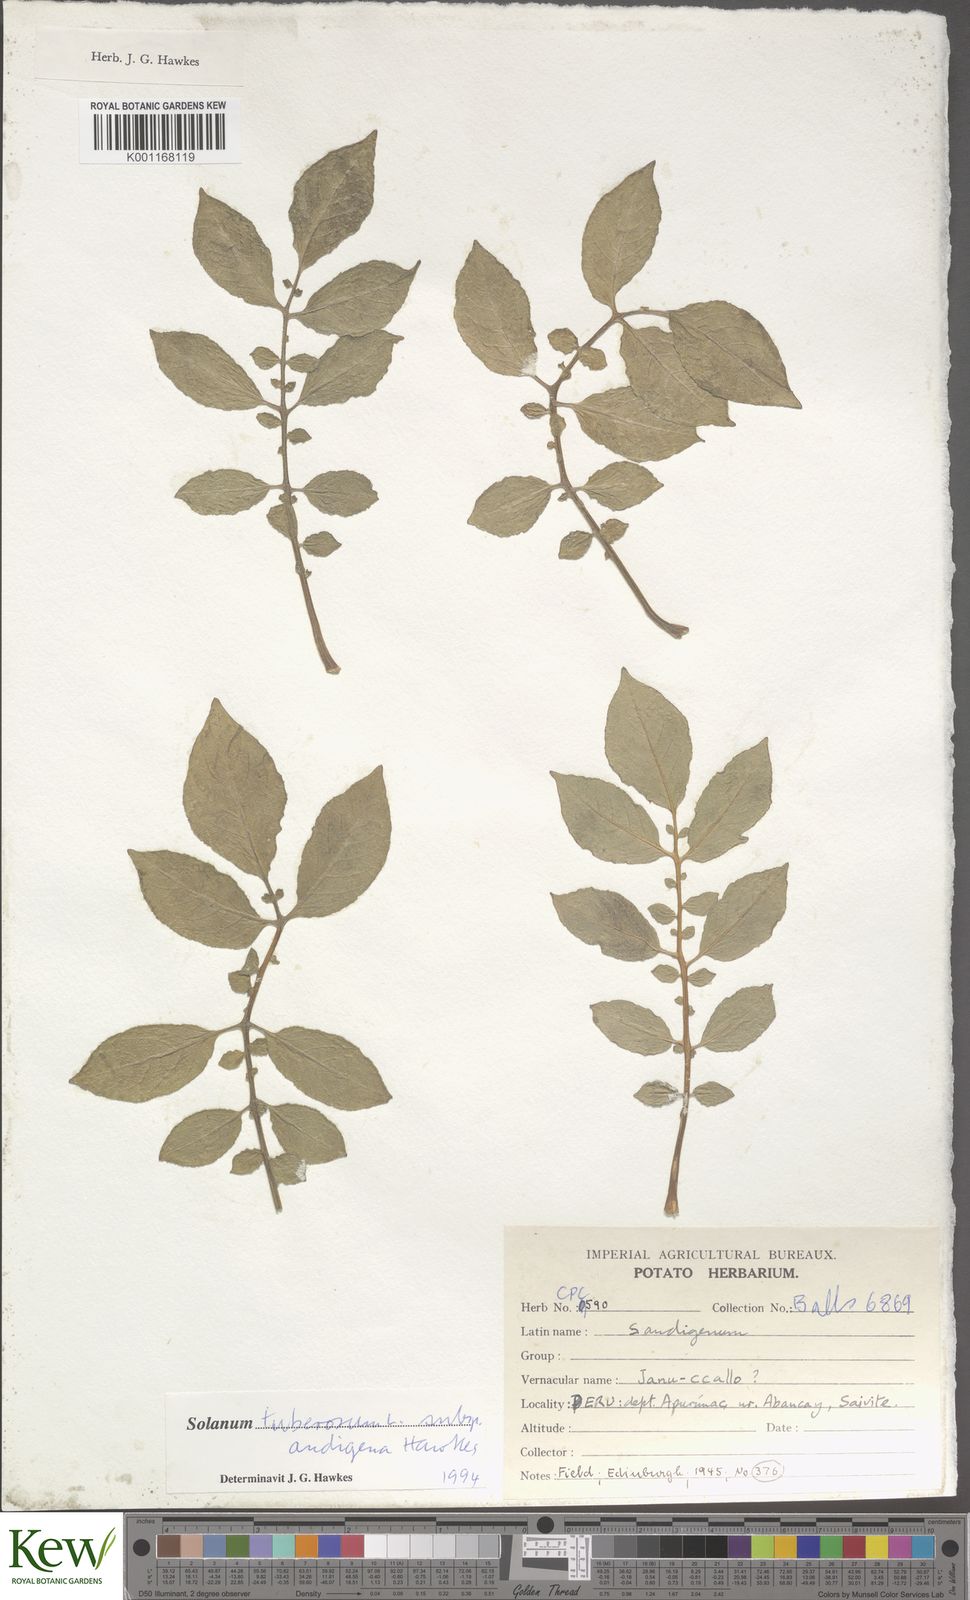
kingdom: Plantae
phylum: Tracheophyta
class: Magnoliopsida
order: Solanales
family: Solanaceae
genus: Solanum
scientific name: Solanum tuberosum
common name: Potato
